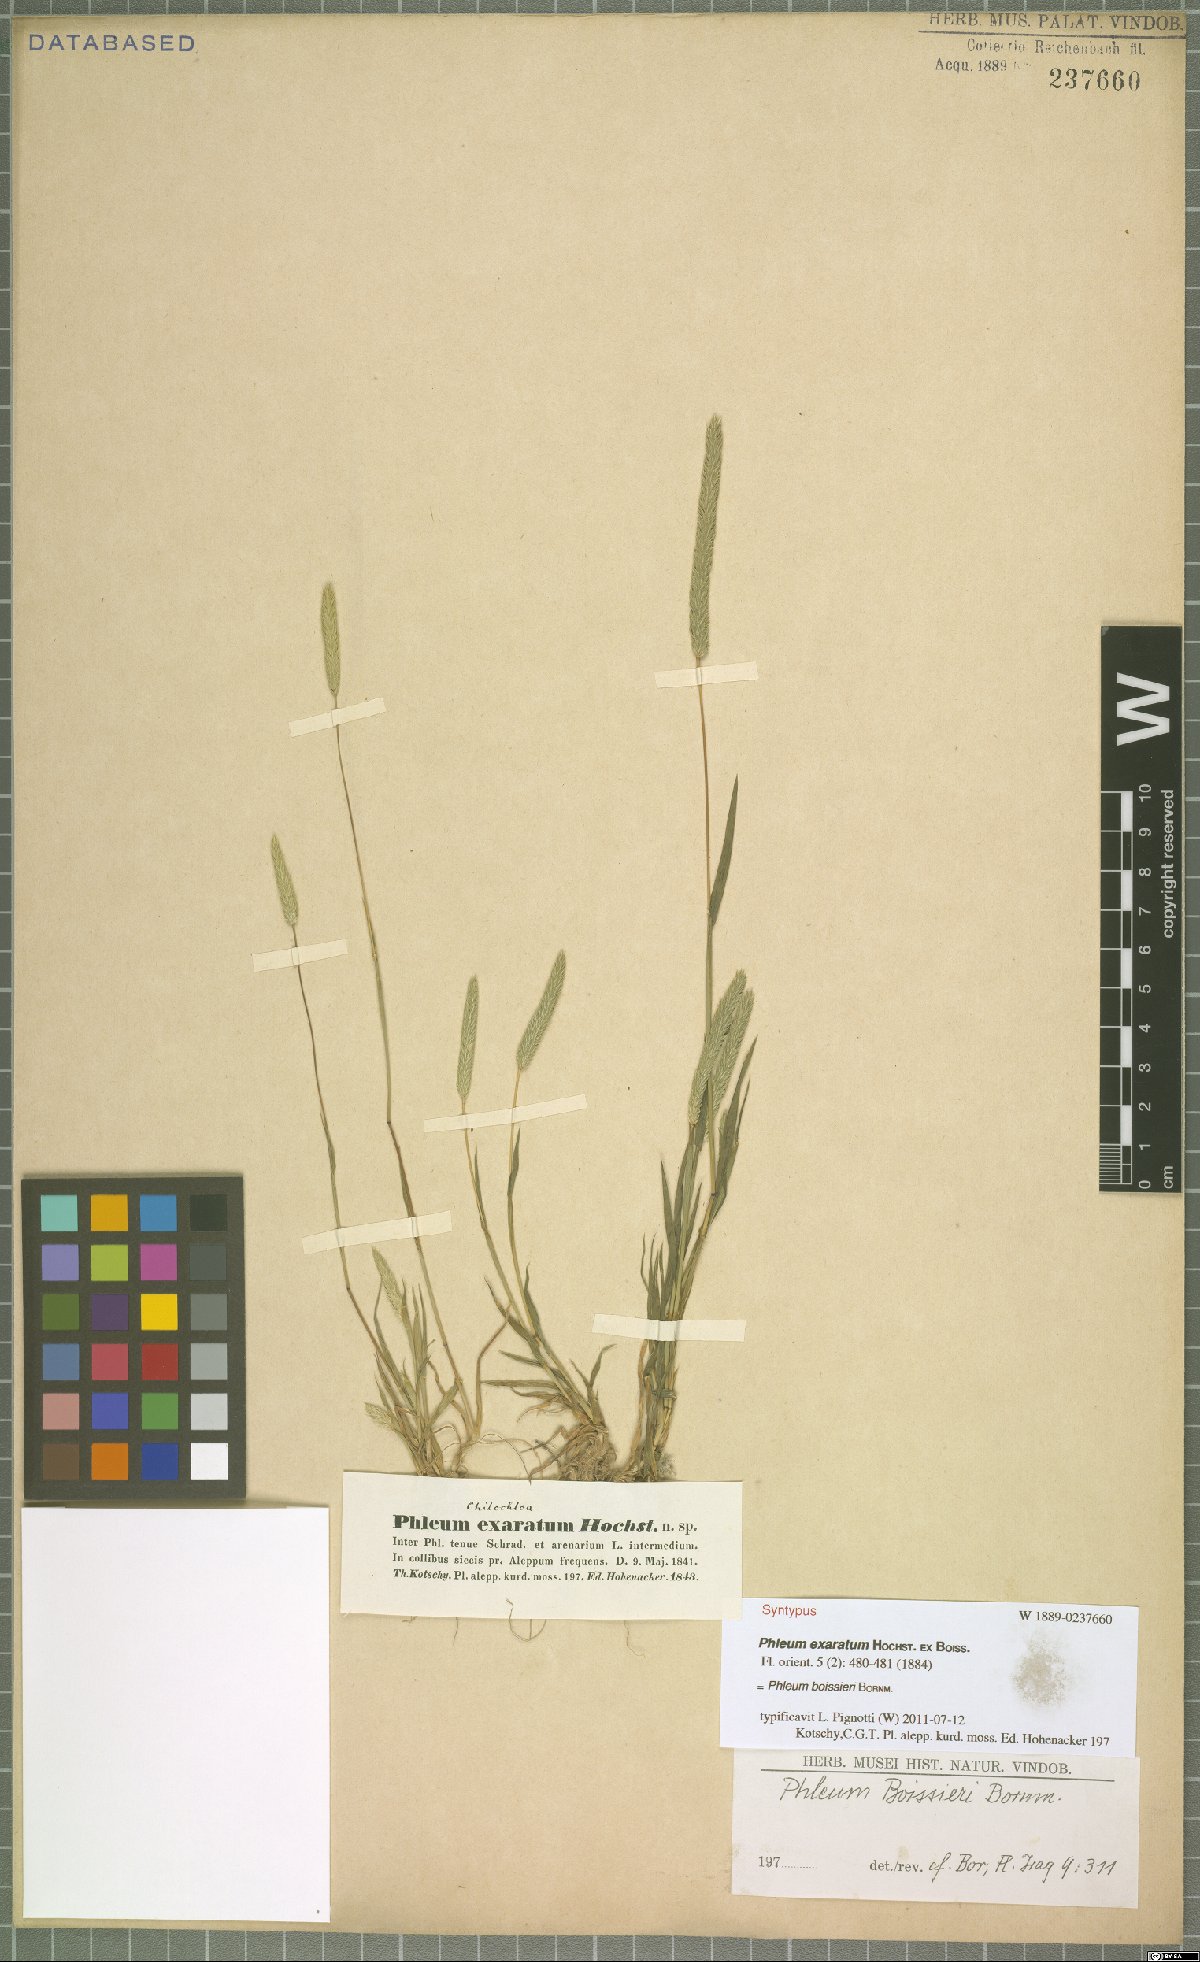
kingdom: Plantae
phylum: Tracheophyta
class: Liliopsida
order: Poales
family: Poaceae
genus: Phleum
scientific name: Phleum boissieri
